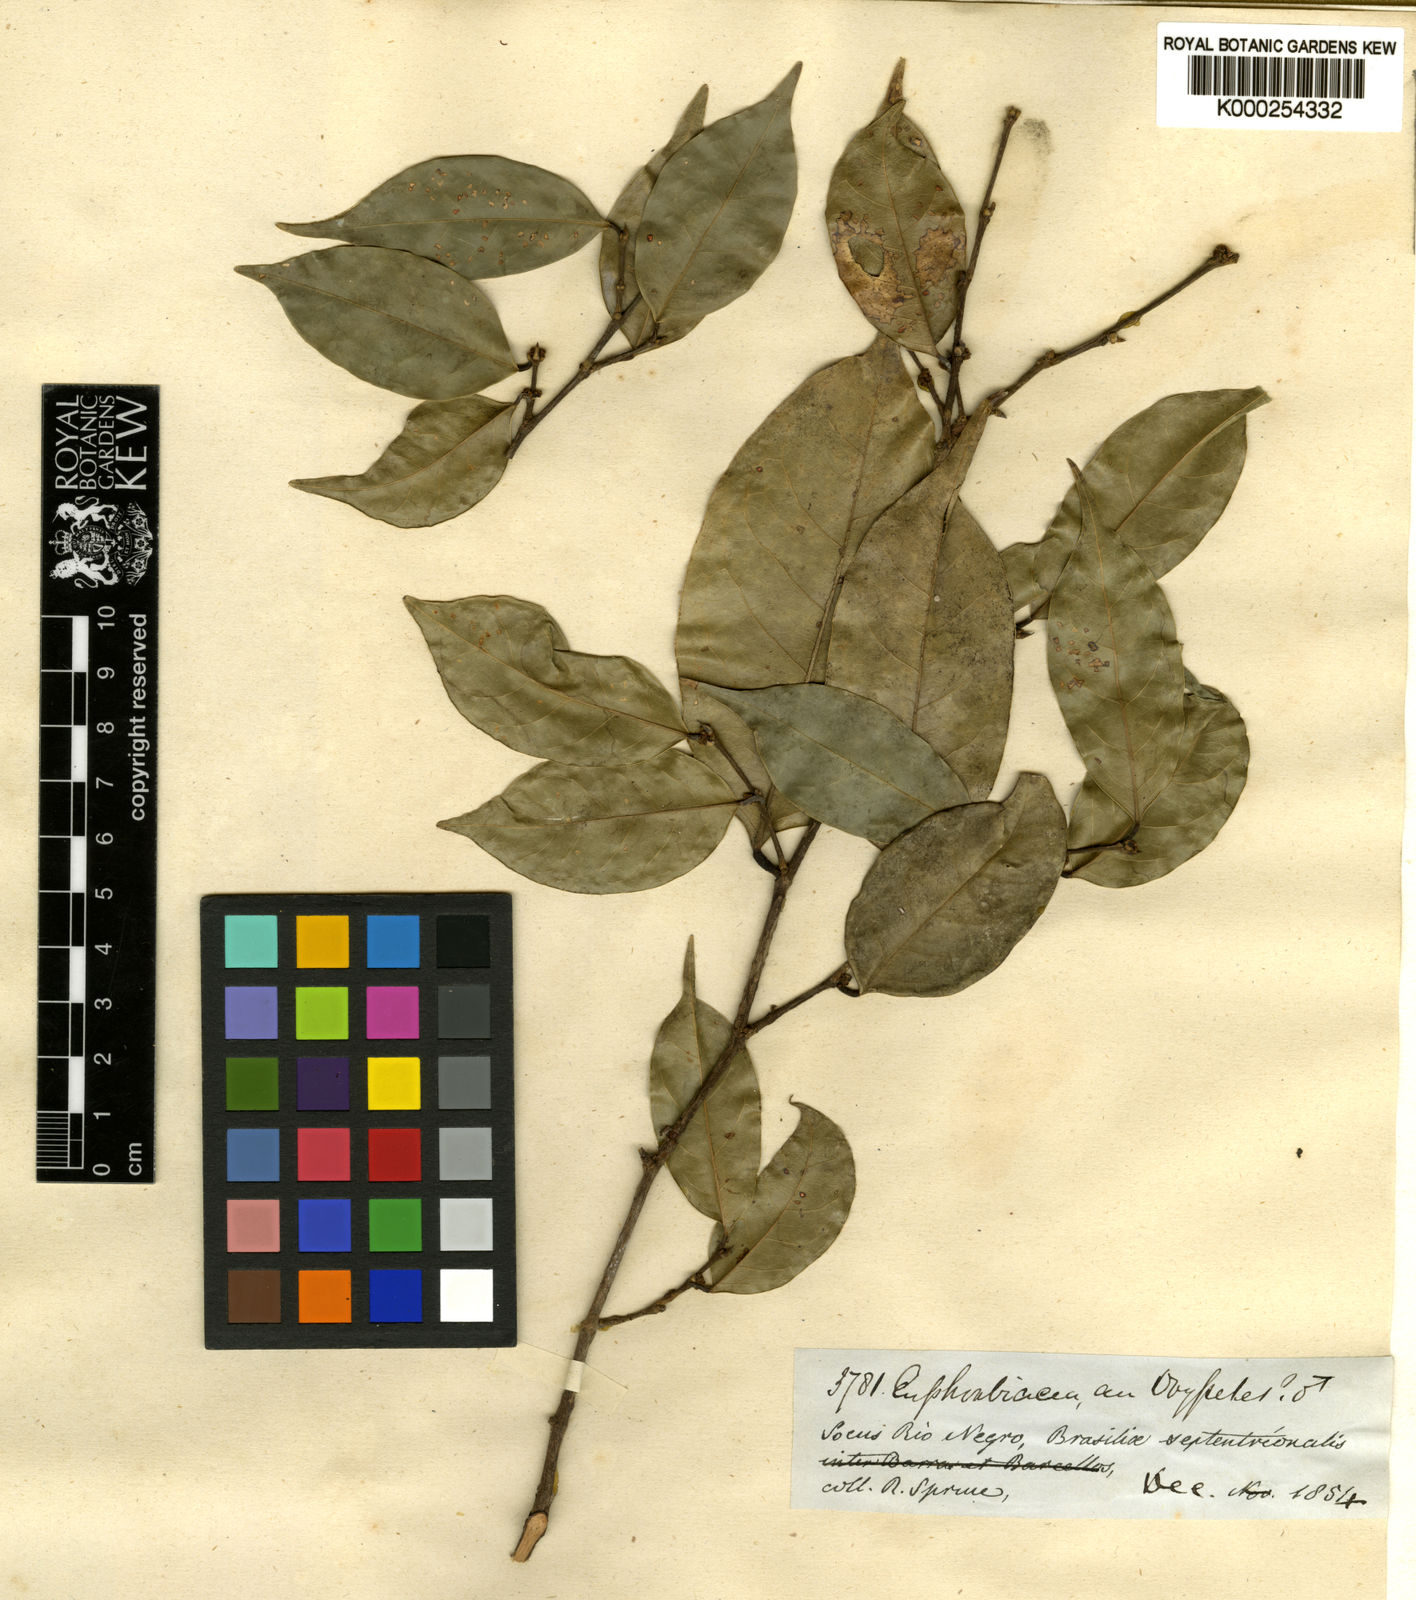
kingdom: Plantae
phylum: Tracheophyta
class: Magnoliopsida
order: Malpighiales
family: Phyllanthaceae
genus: Chonocentrum
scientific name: Chonocentrum
